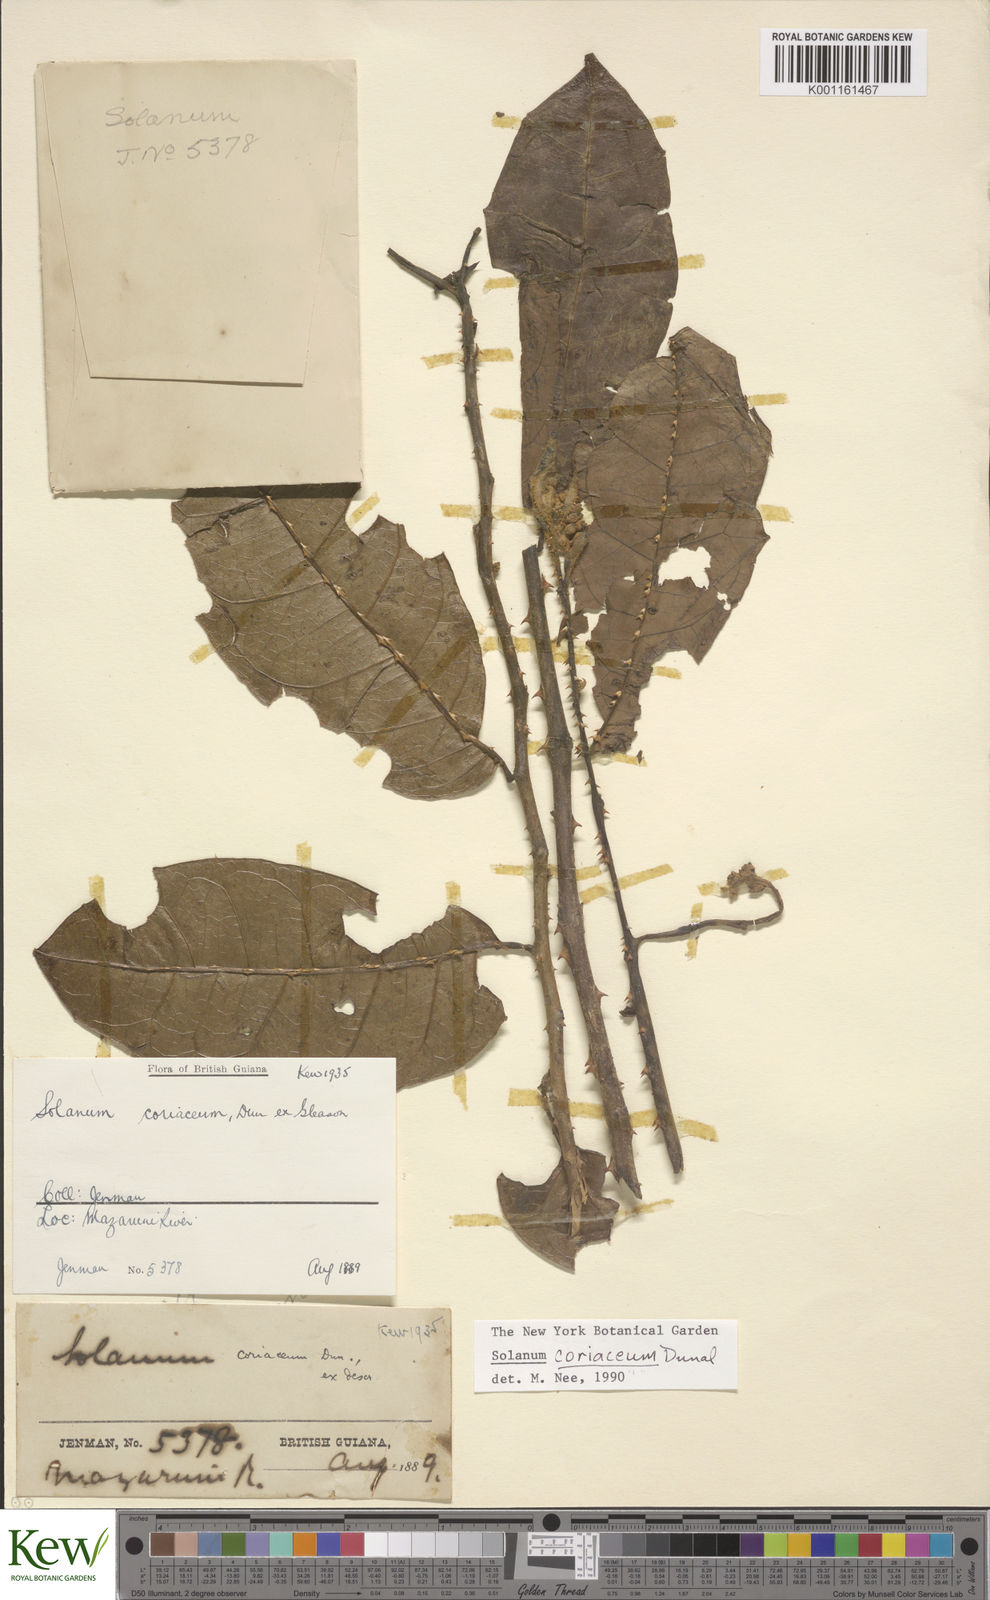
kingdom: Plantae
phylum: Tracheophyta
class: Magnoliopsida
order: Solanales
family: Solanaceae
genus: Solanum
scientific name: Solanum coriaceum
